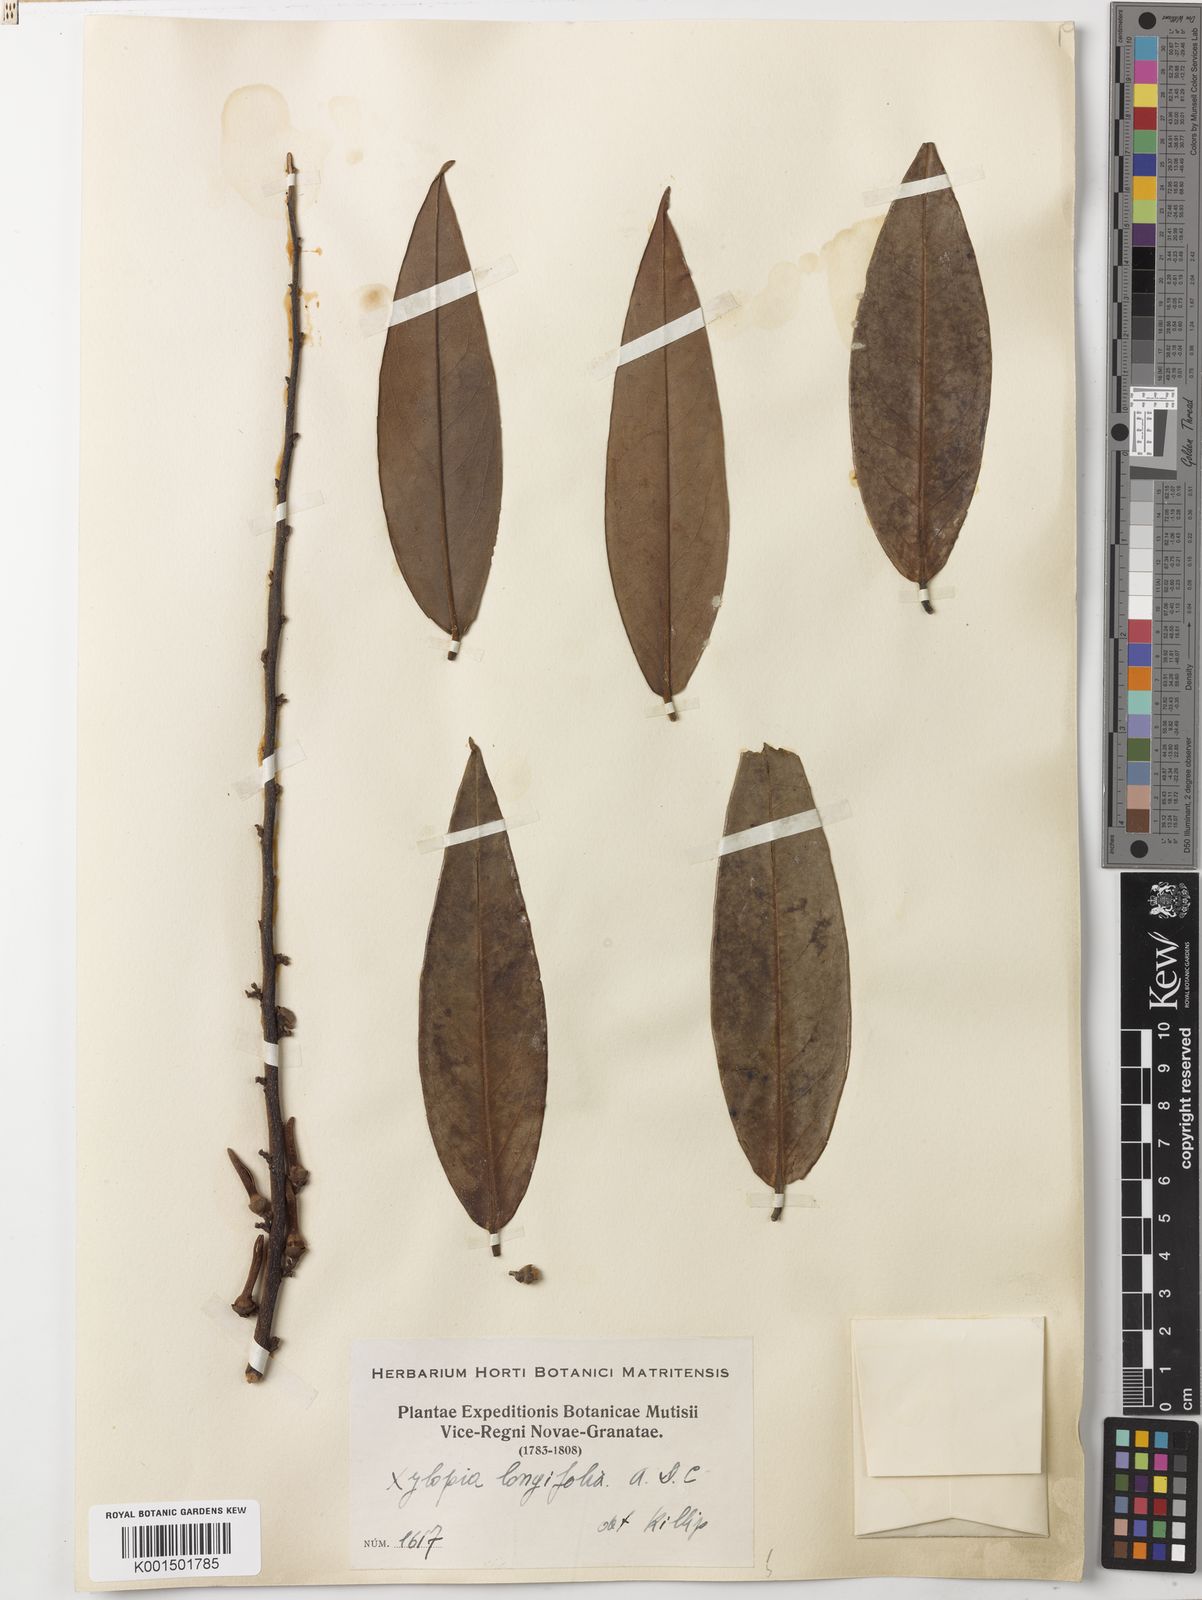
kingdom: Plantae
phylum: Tracheophyta
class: Magnoliopsida
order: Magnoliales
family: Annonaceae
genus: Xylopia
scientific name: Xylopia aromatica
